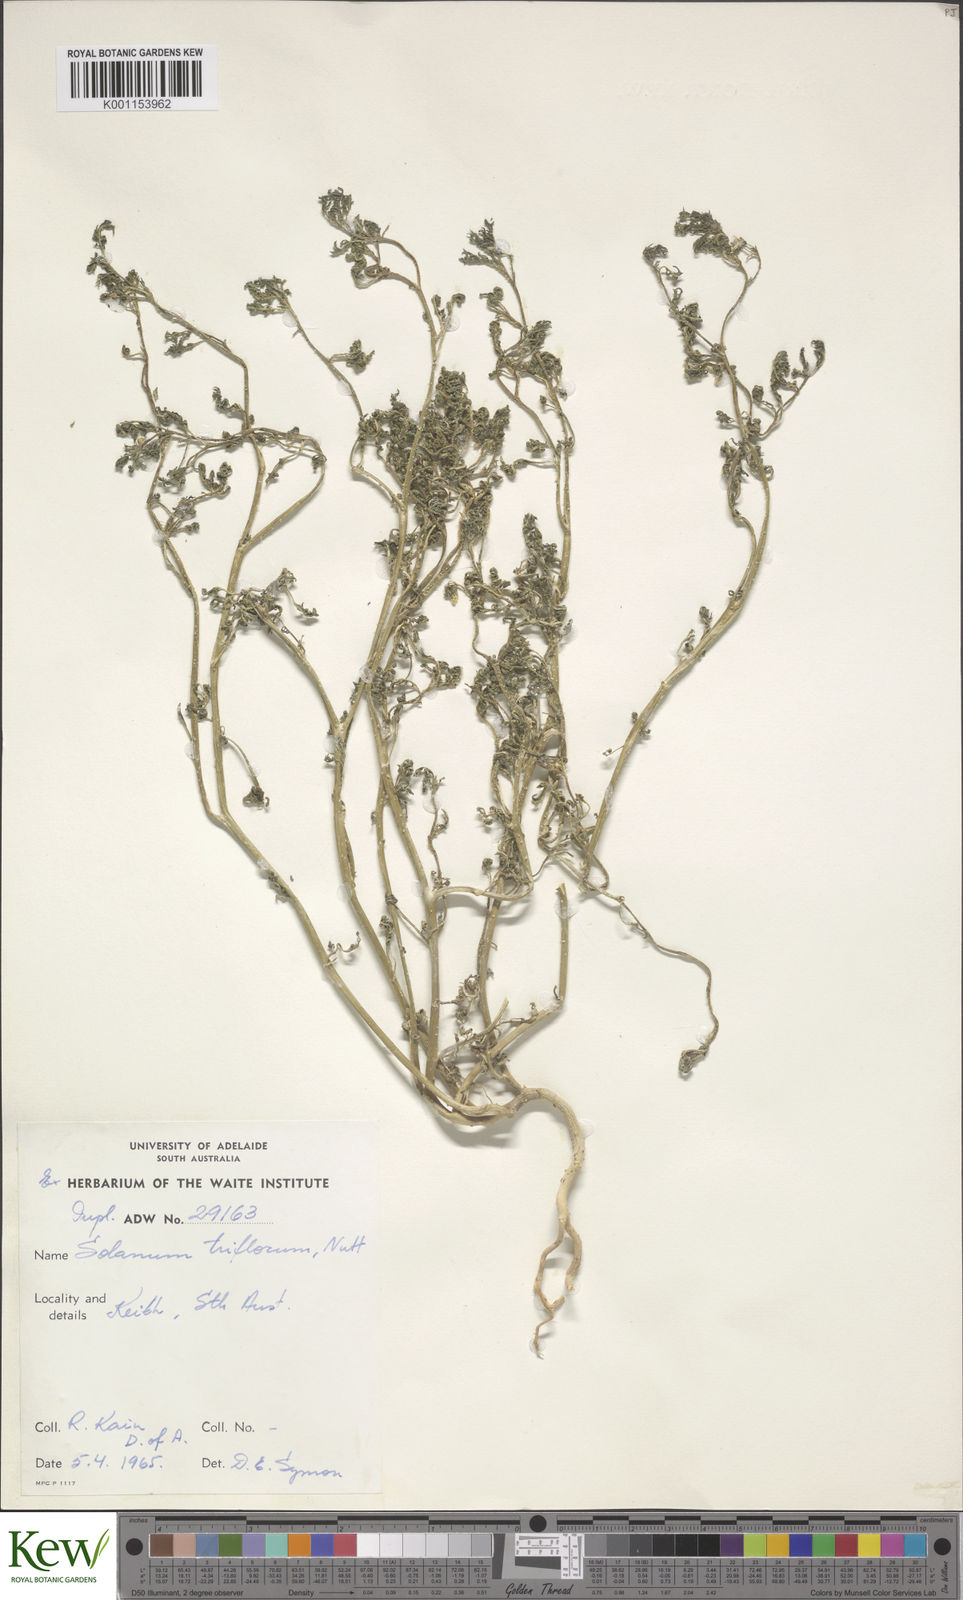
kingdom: Plantae
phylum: Tracheophyta
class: Magnoliopsida
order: Solanales
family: Solanaceae
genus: Solanum
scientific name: Solanum triflorum
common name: Small nightshade
